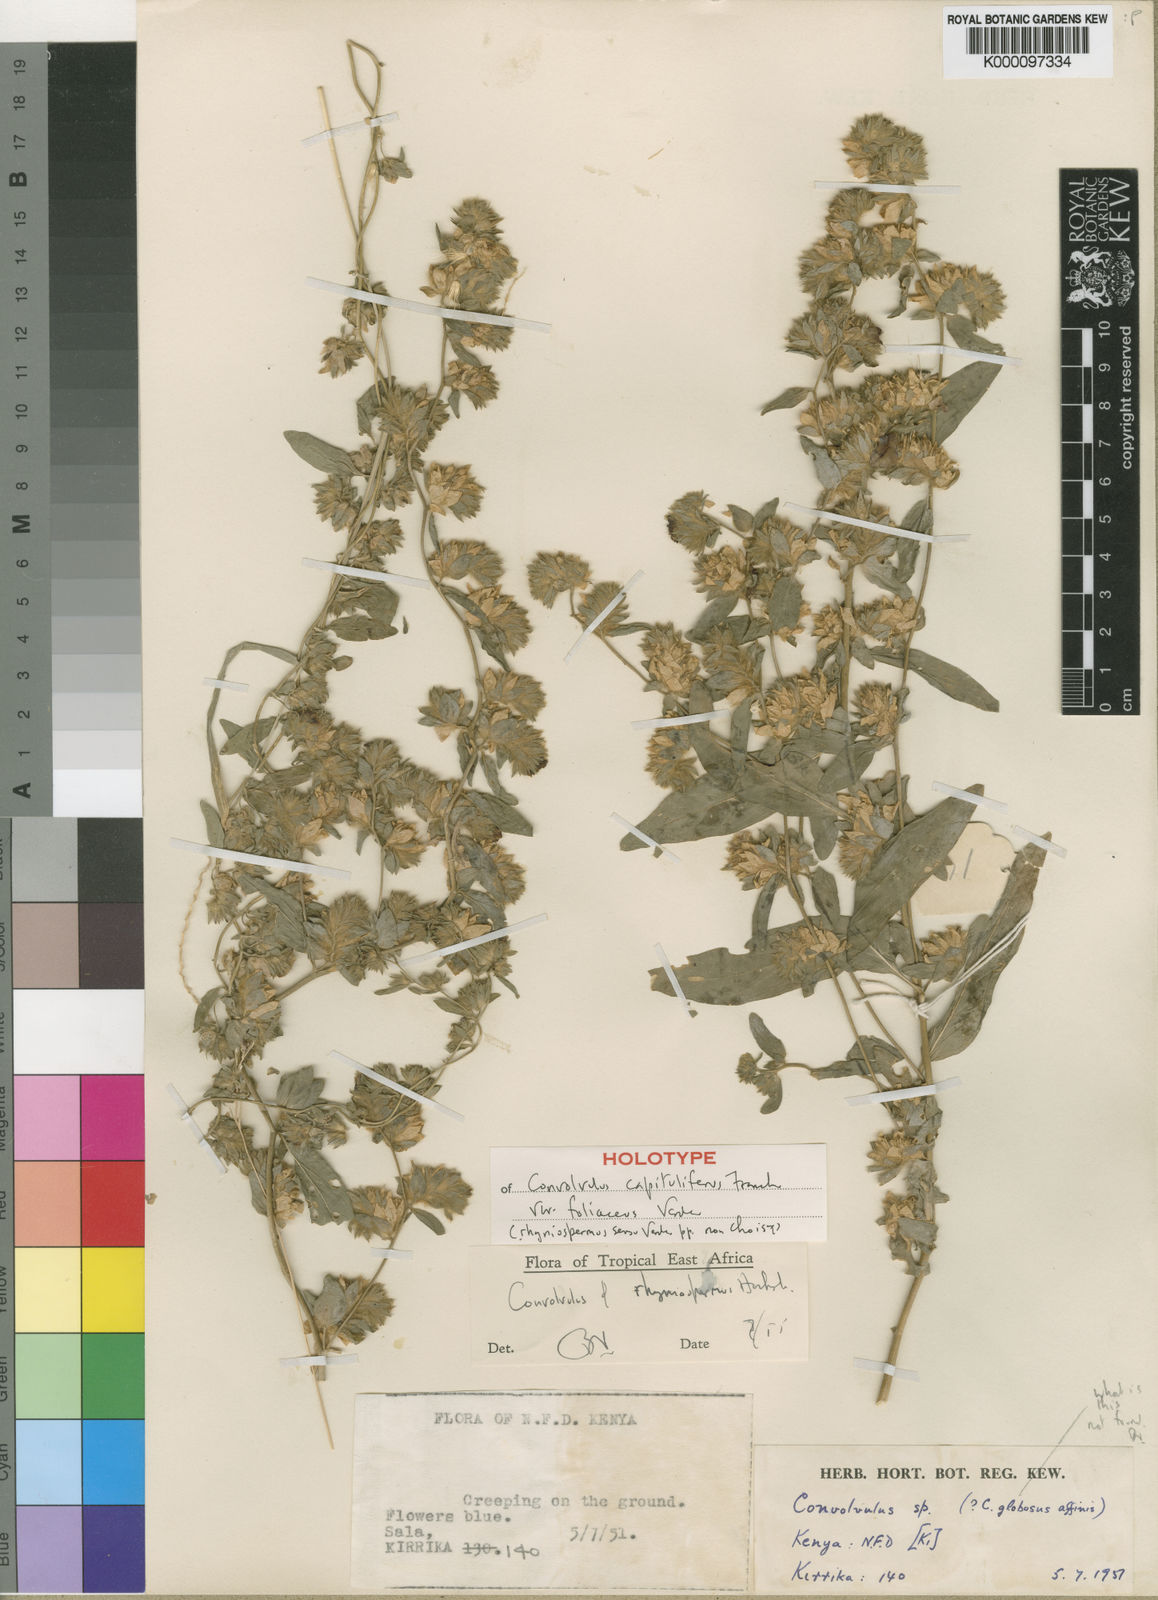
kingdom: Plantae
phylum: Tracheophyta
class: Magnoliopsida
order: Solanales
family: Convolvulaceae
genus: Convolvulus
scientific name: Convolvulus rhyniospermus
